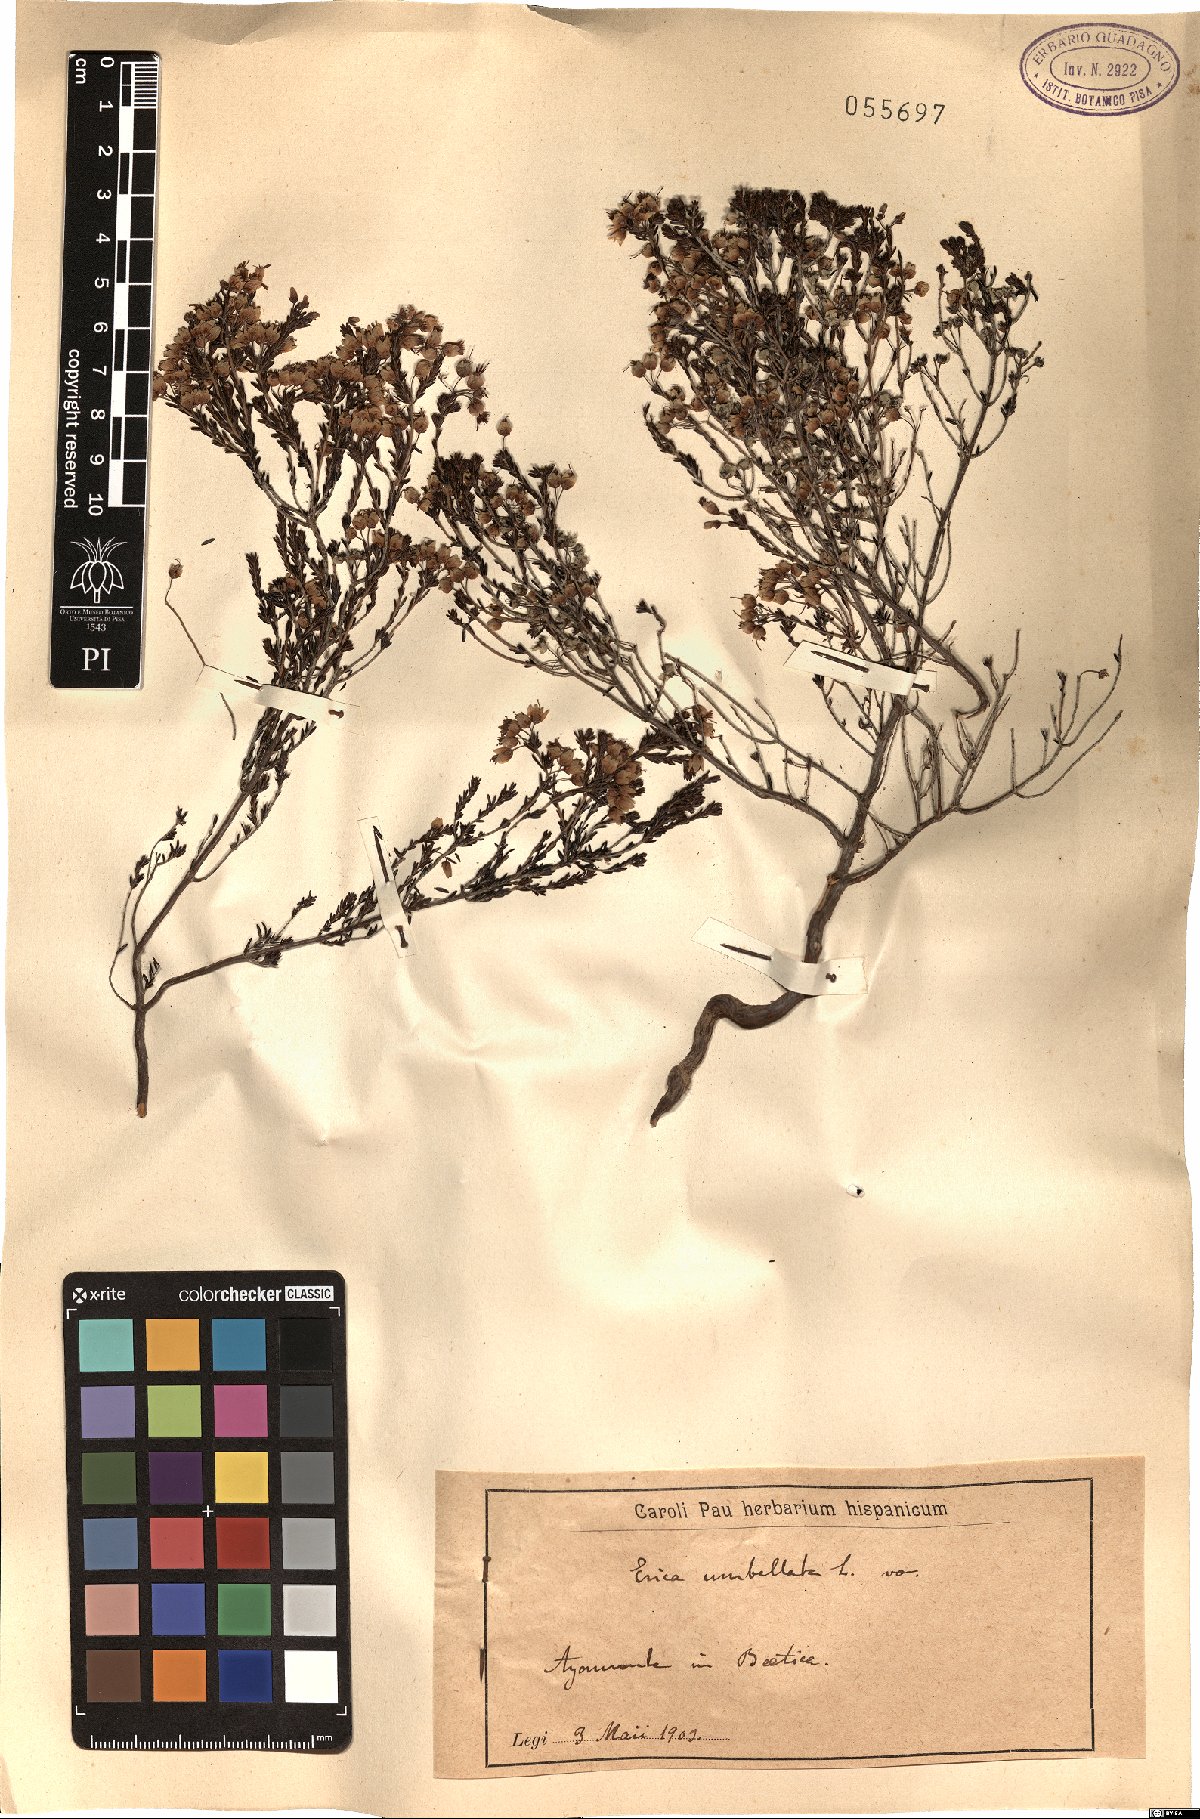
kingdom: Plantae
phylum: Tracheophyta
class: Magnoliopsida
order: Ericales
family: Ericaceae
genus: Erica
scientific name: Erica umbellata
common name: Dwarf spanish heath
